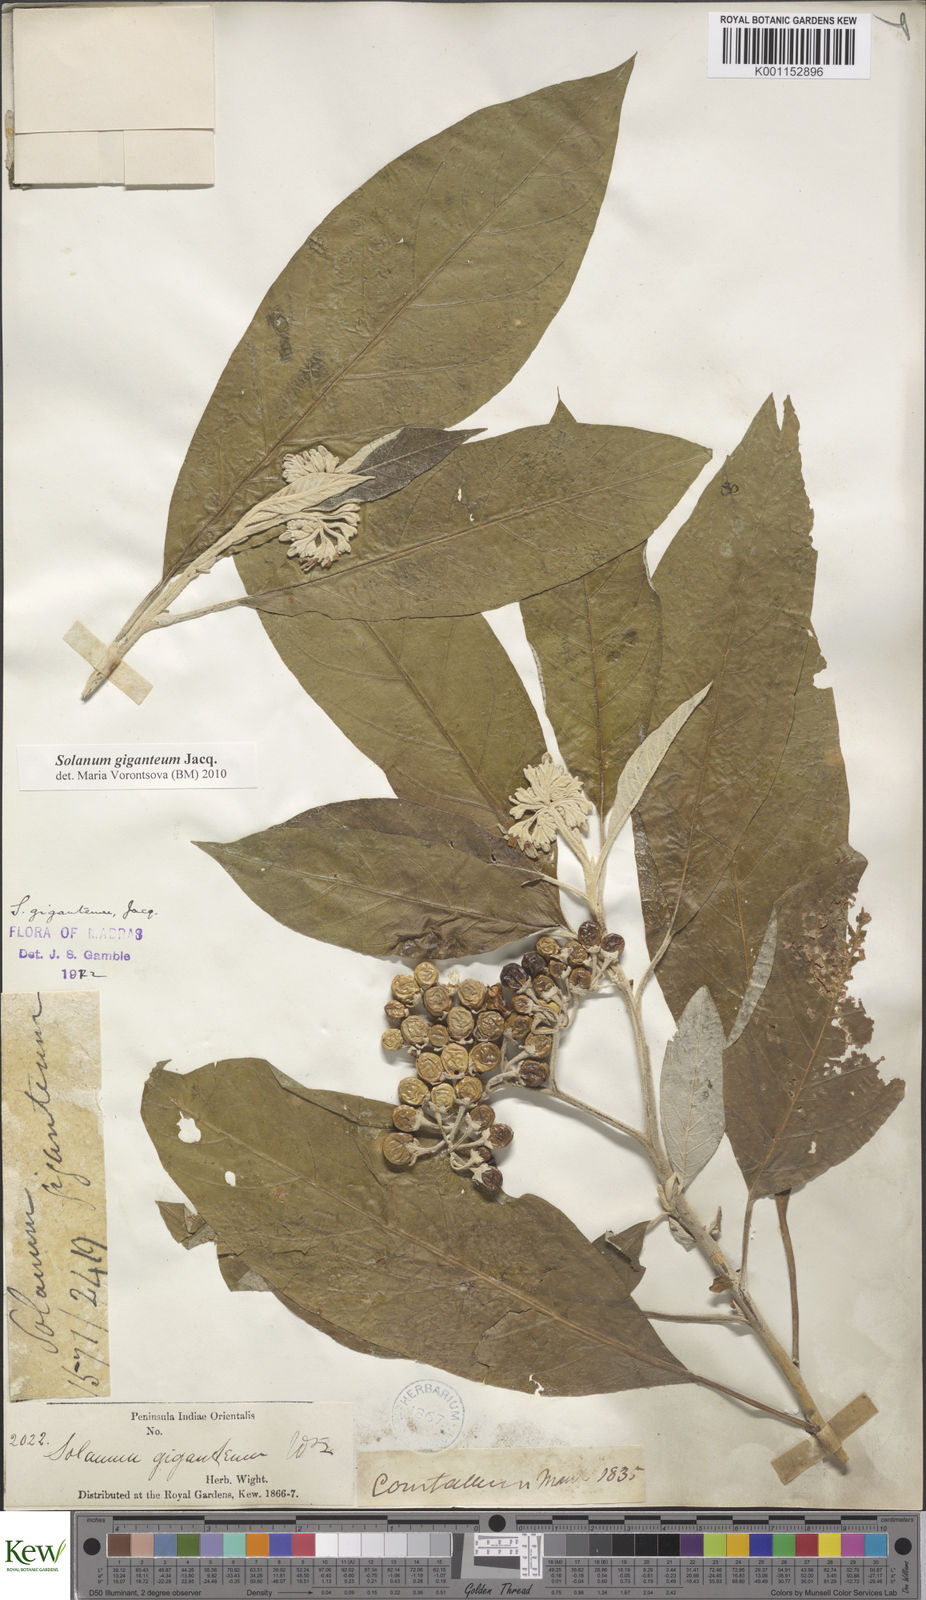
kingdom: Plantae
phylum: Tracheophyta
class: Magnoliopsida
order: Solanales
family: Solanaceae
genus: Solanum
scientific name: Solanum giganteum
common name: Healing-leaf-tree
